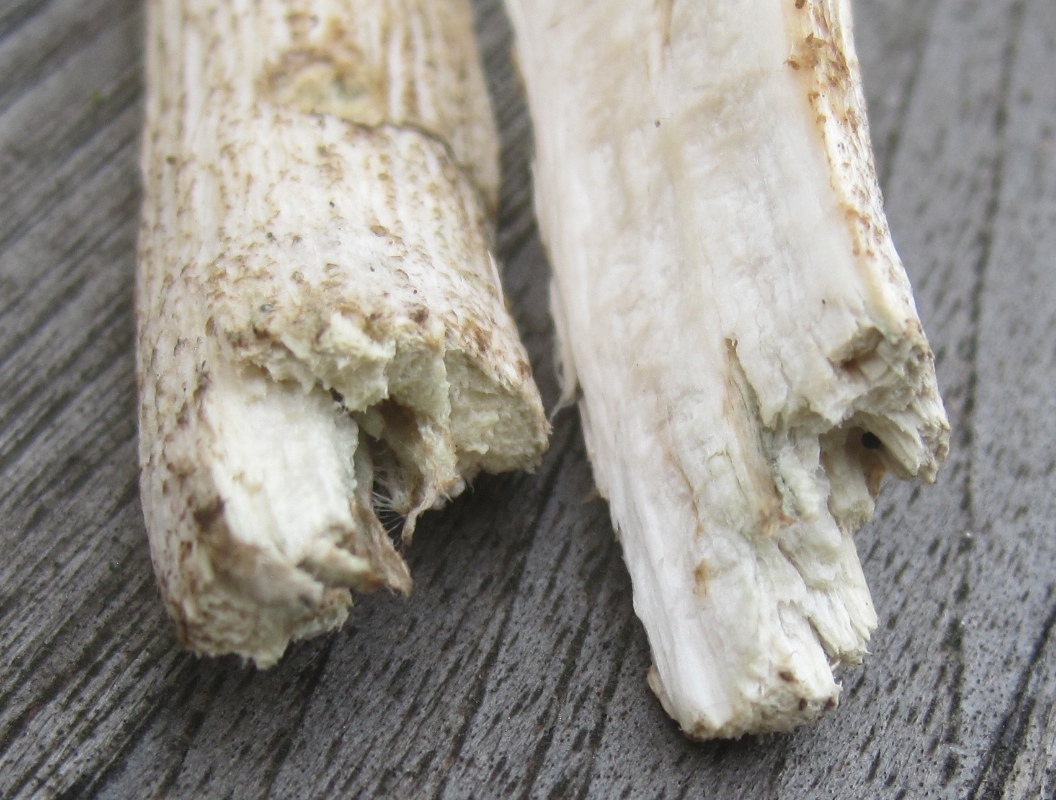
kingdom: Fungi
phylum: Basidiomycota
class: Agaricomycetes
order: Boletales
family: Boletaceae
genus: Leccinum
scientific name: Leccinum scabrum
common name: hvid skælrørhat
